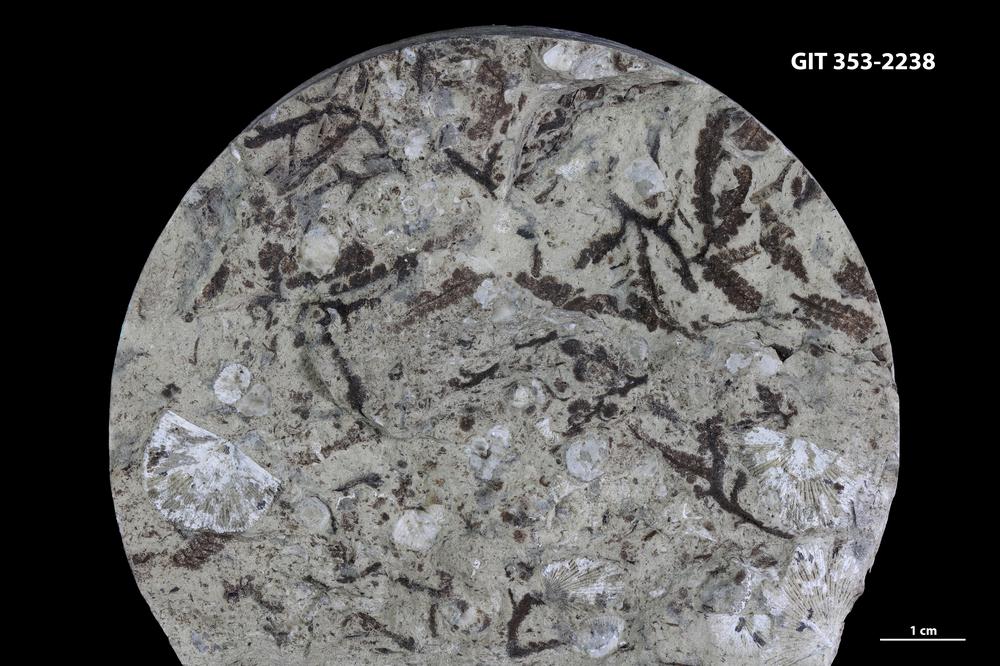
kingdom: Plantae
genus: Leveilleites
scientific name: Leveilleites hartnageli
